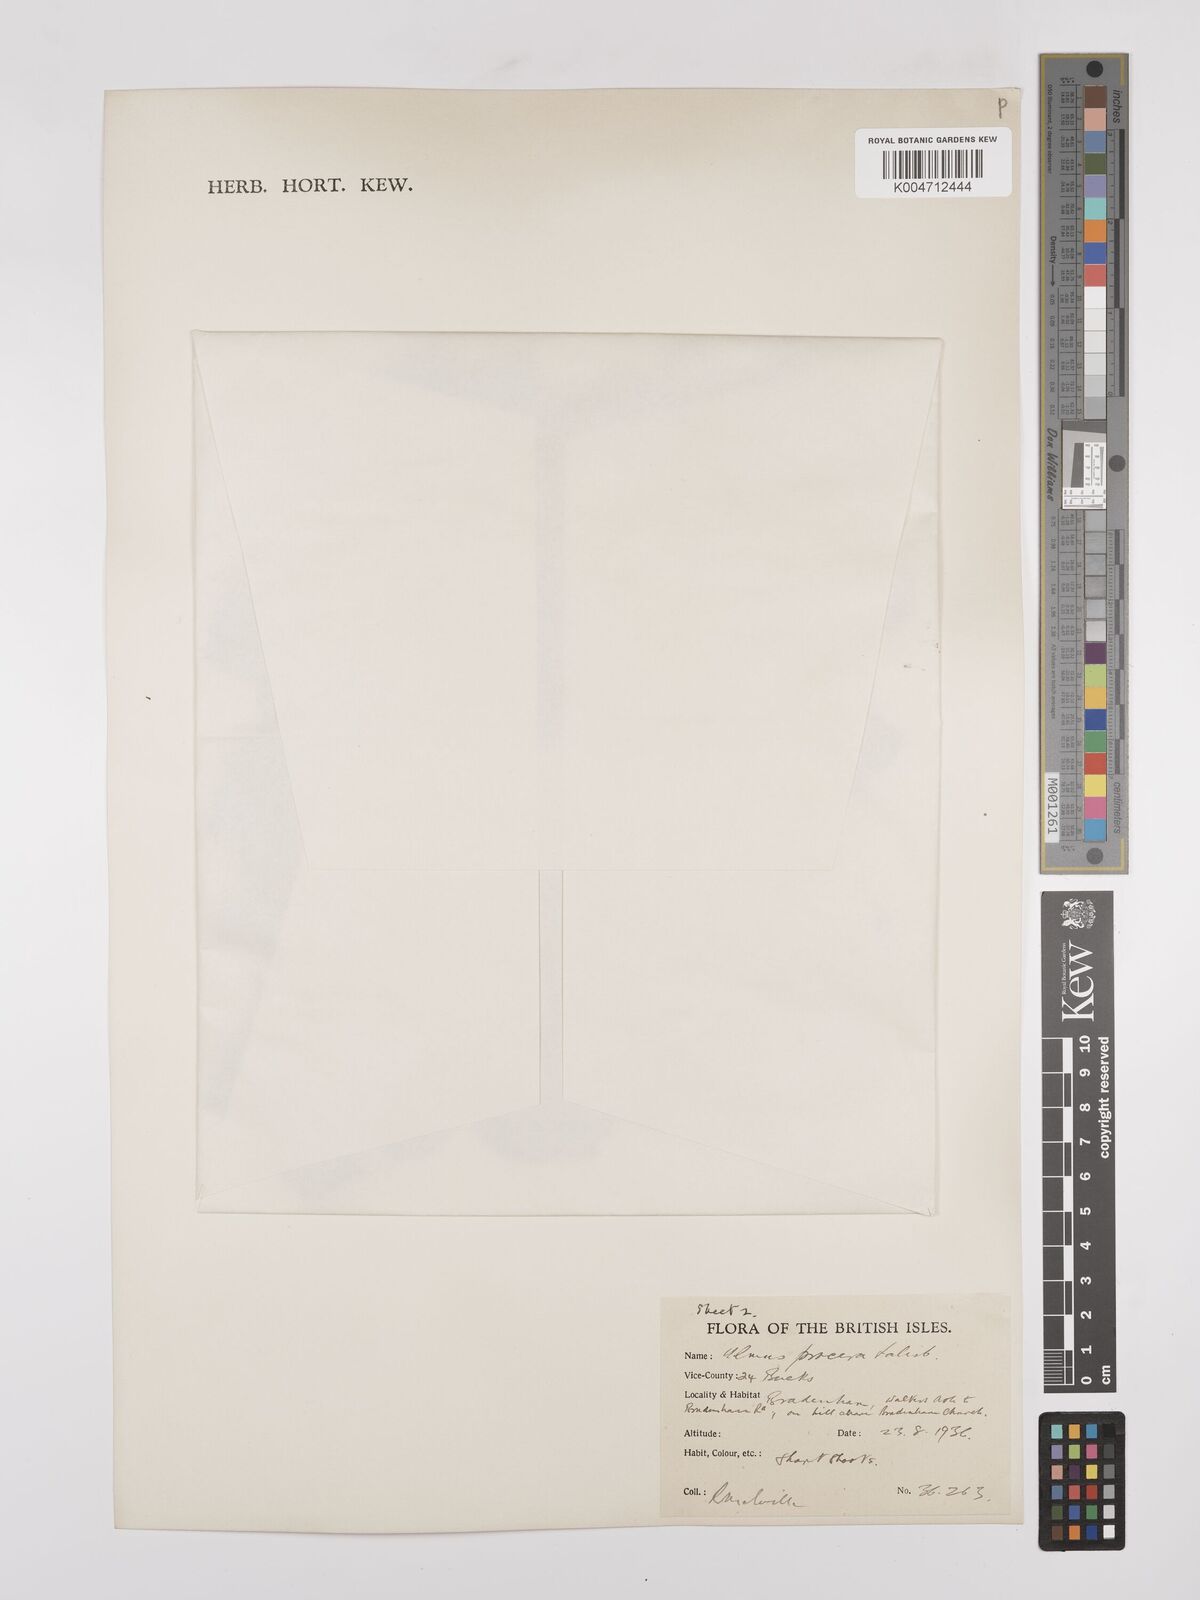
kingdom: Plantae
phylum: Tracheophyta
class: Magnoliopsida
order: Rosales
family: Ulmaceae
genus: Ulmus
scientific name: Ulmus minor
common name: Small-leaved elm
